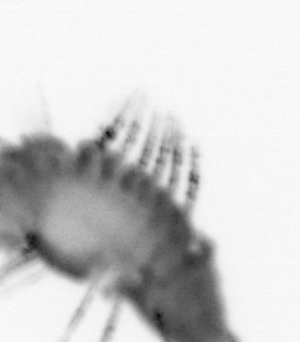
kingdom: Animalia
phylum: Annelida
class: Polychaeta
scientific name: Polychaeta
